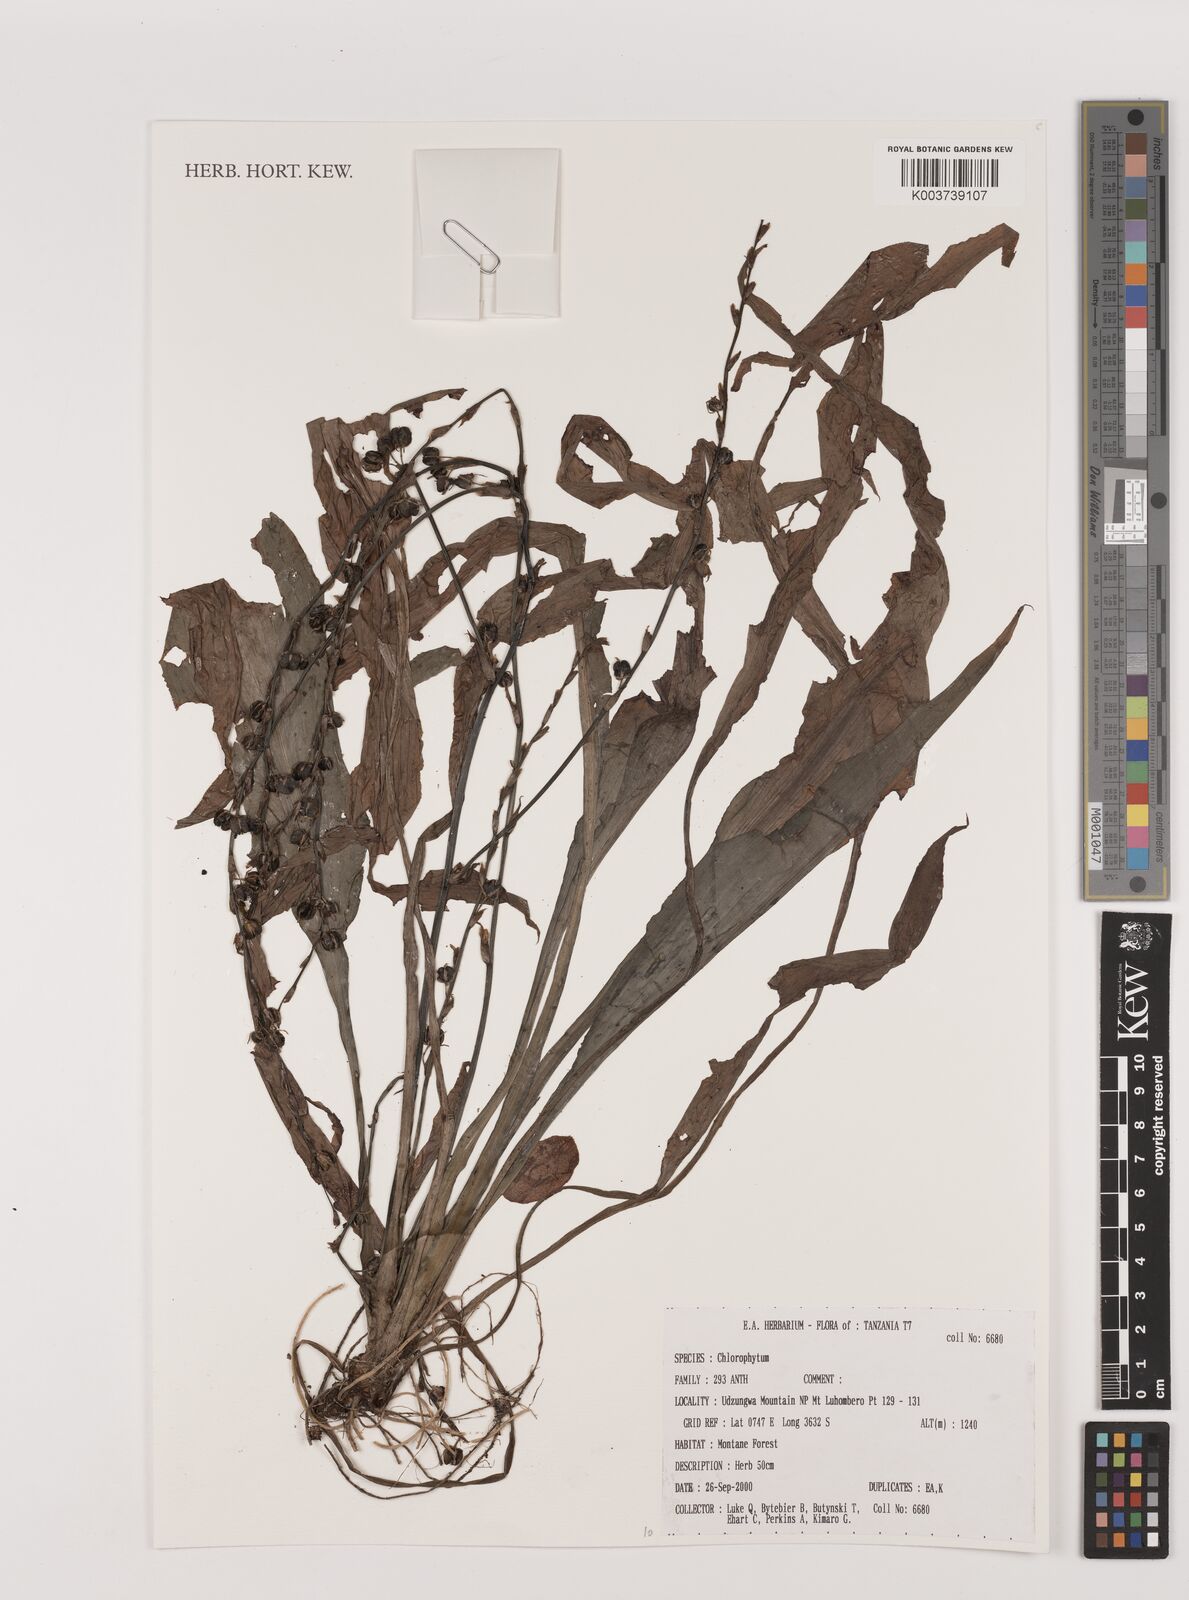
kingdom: Plantae
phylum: Tracheophyta
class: Liliopsida
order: Asparagales
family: Asparagaceae
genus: Chlorophytum
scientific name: Chlorophytum
